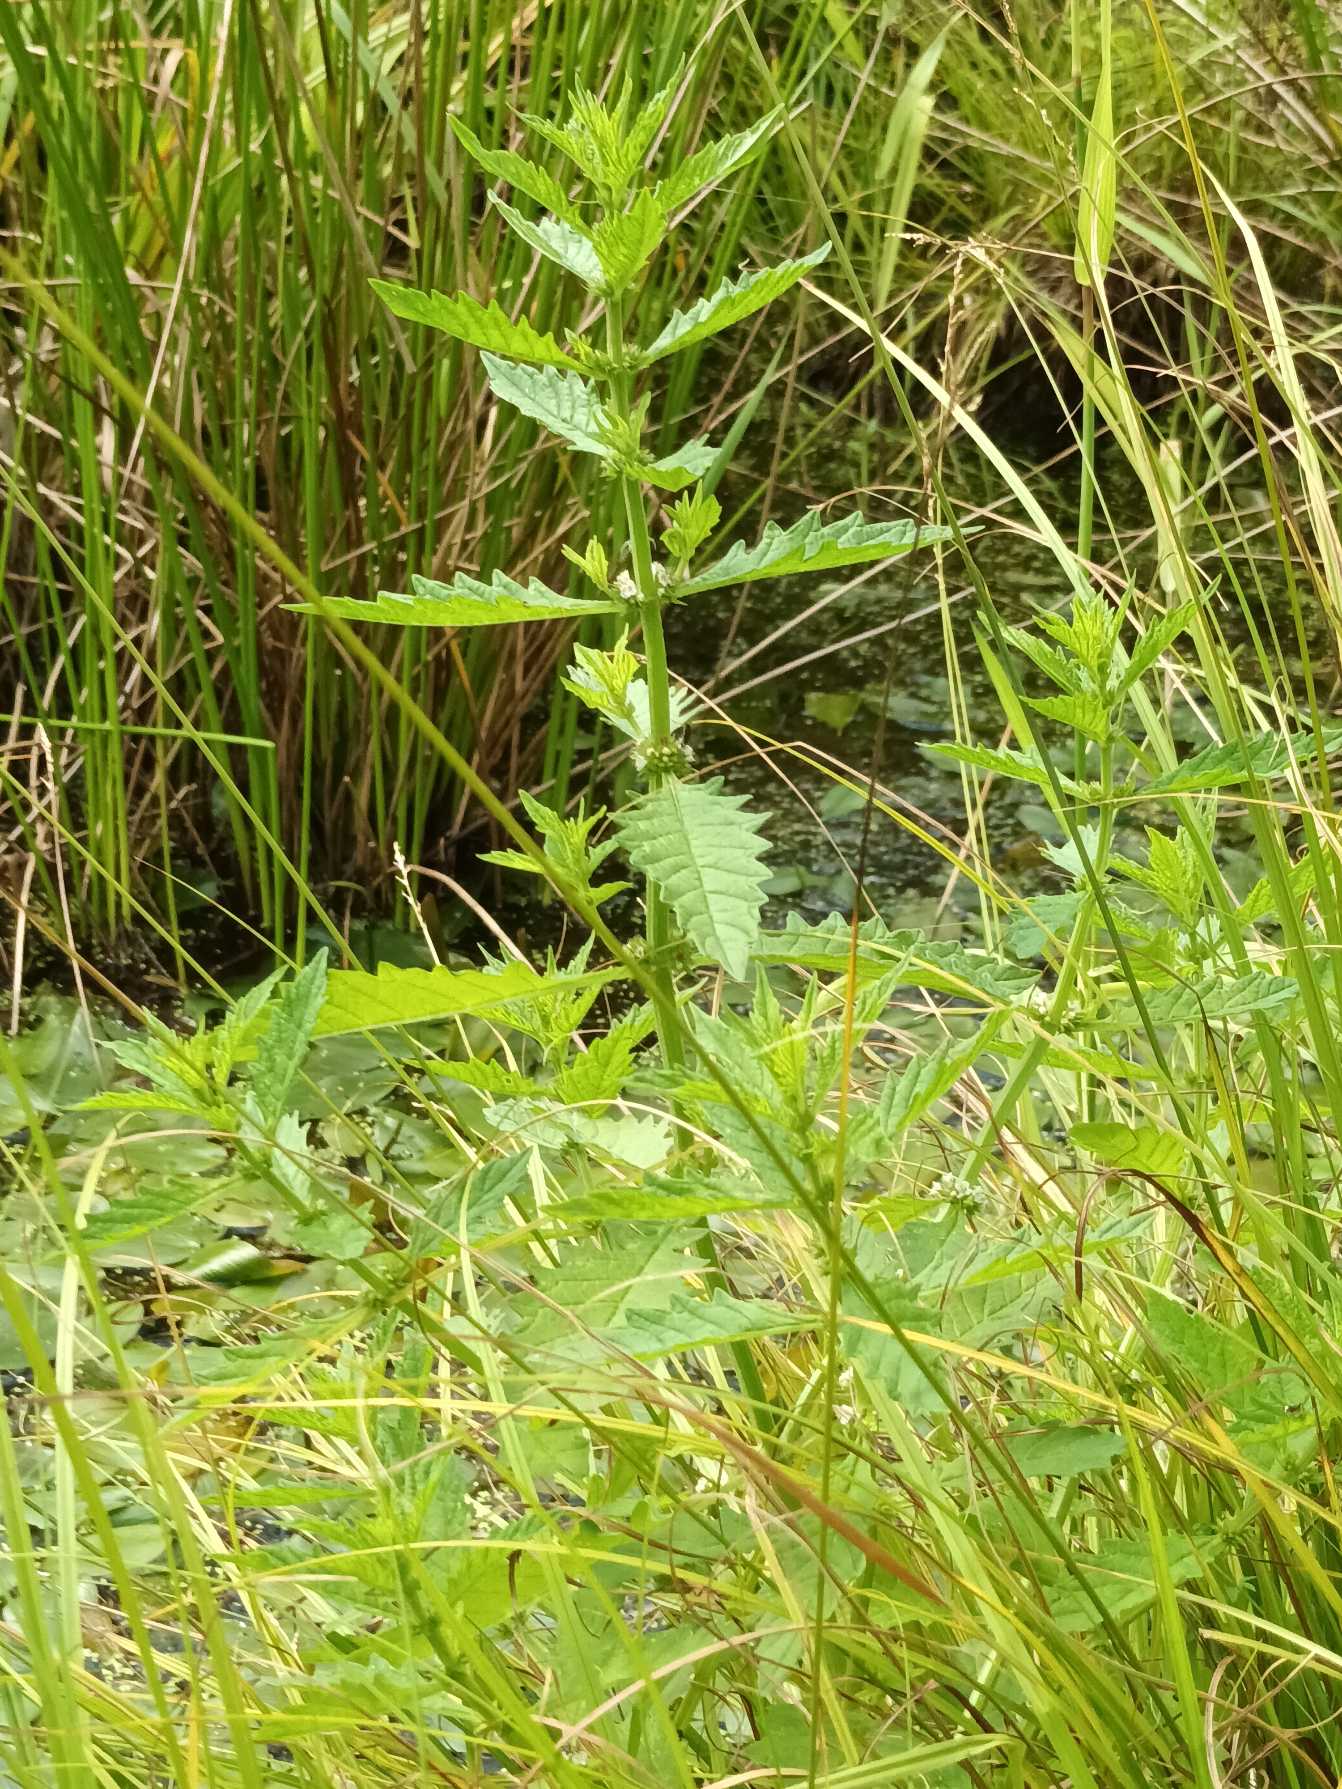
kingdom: Plantae
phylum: Tracheophyta
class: Magnoliopsida
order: Lamiales
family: Lamiaceae
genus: Lycopus
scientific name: Lycopus europaeus
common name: Sværtevæld
